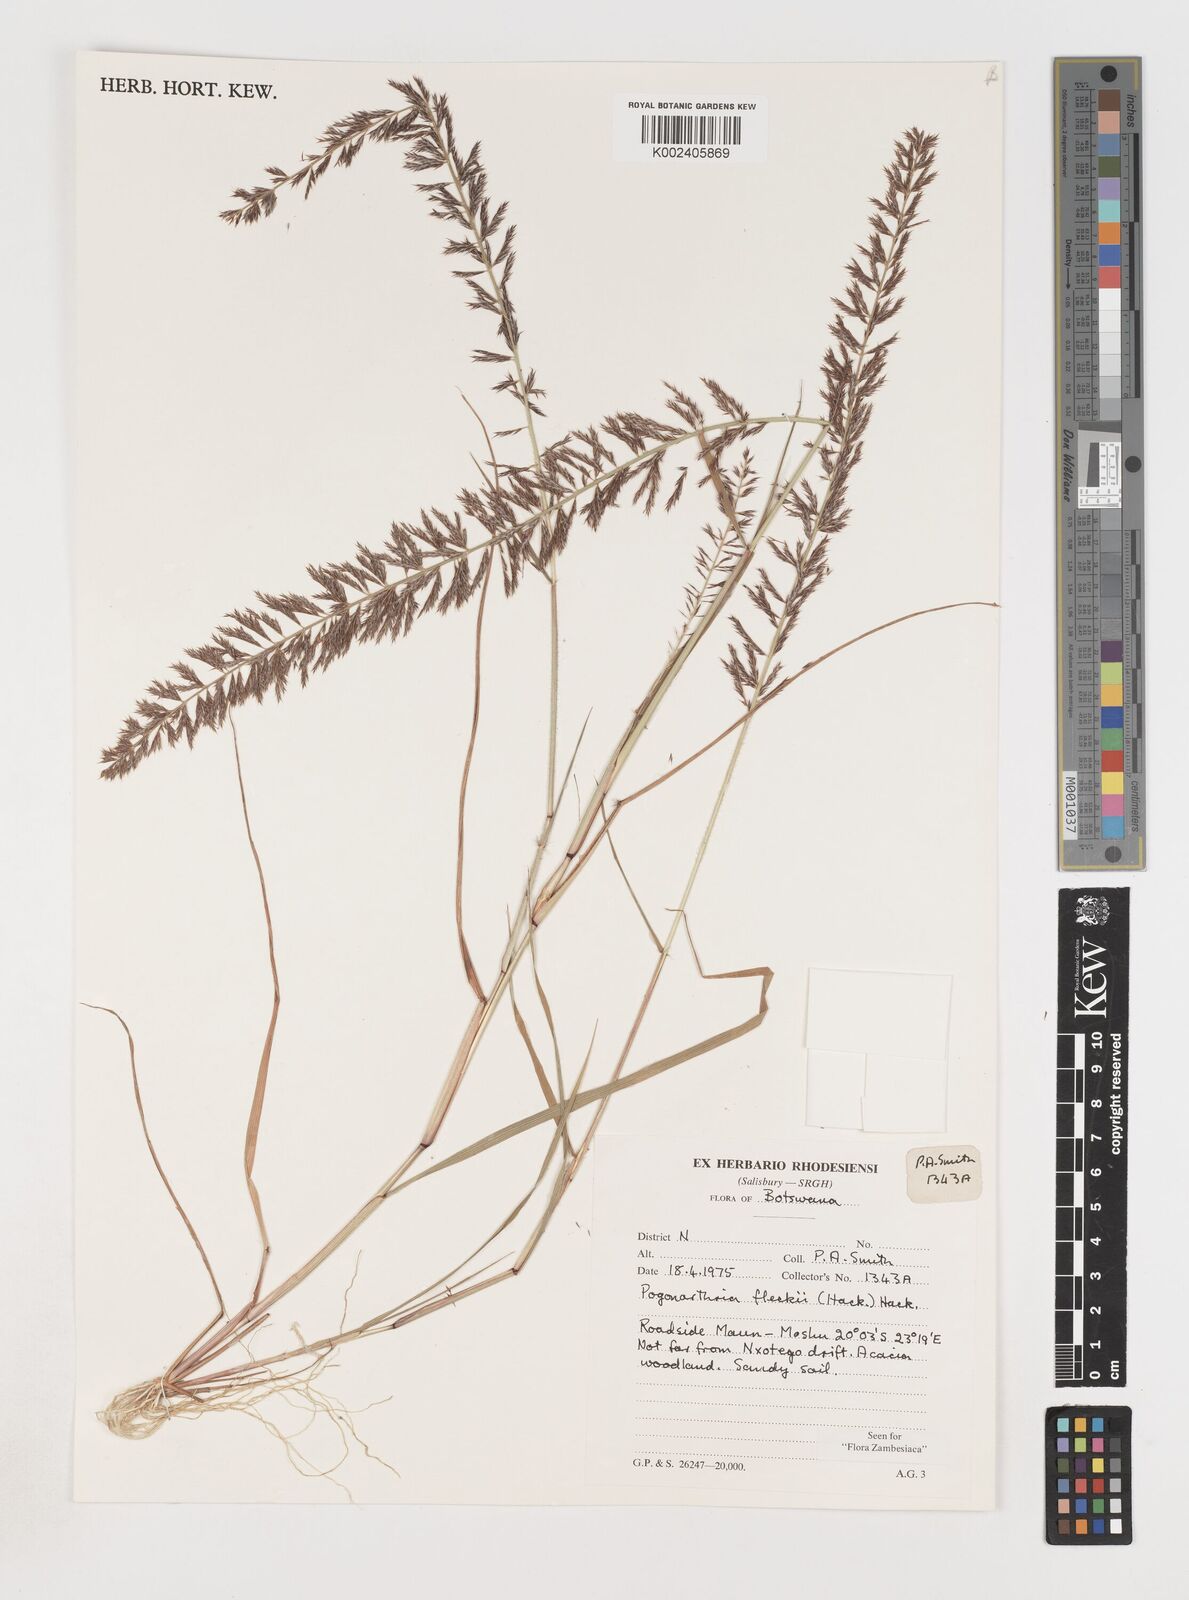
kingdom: Plantae
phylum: Tracheophyta
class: Liliopsida
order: Poales
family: Poaceae
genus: Pogonarthria
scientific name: Pogonarthria fleckii
